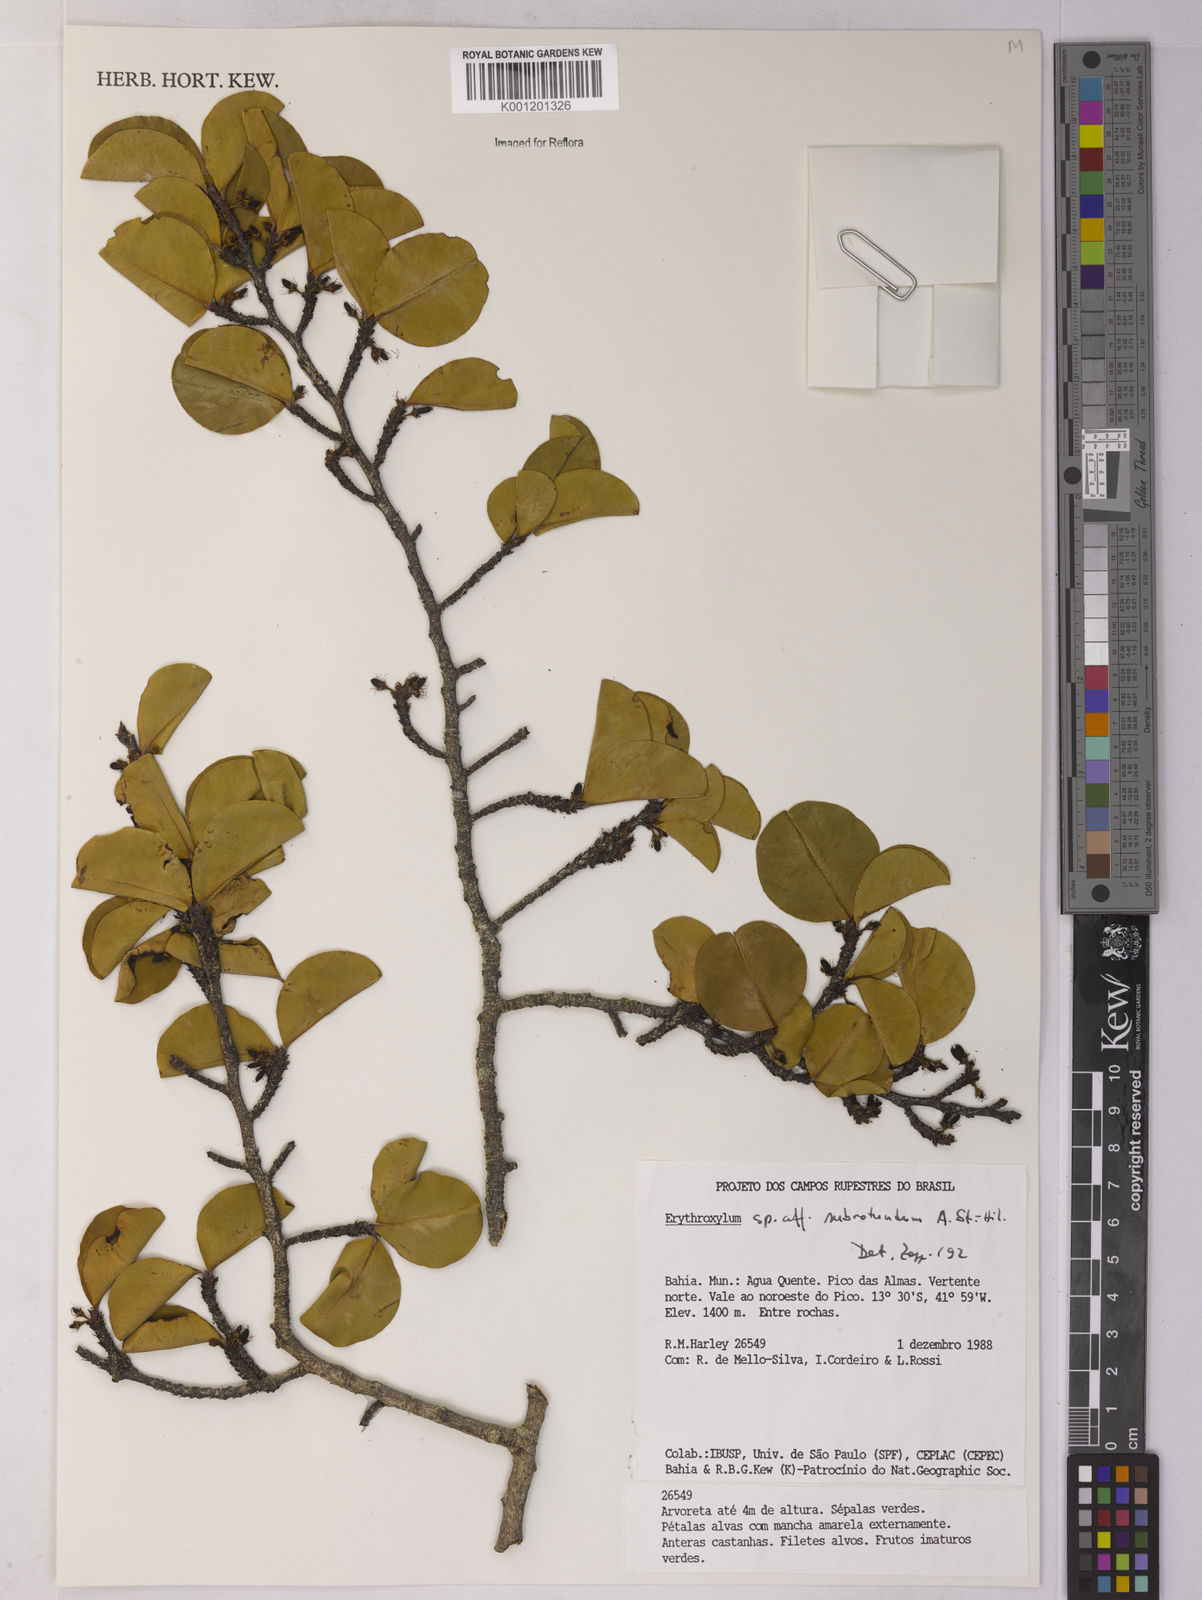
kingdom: Plantae
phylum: Tracheophyta
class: Magnoliopsida
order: Malpighiales
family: Erythroxylaceae
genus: Erythroxylum
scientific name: Erythroxylum subrotundum
